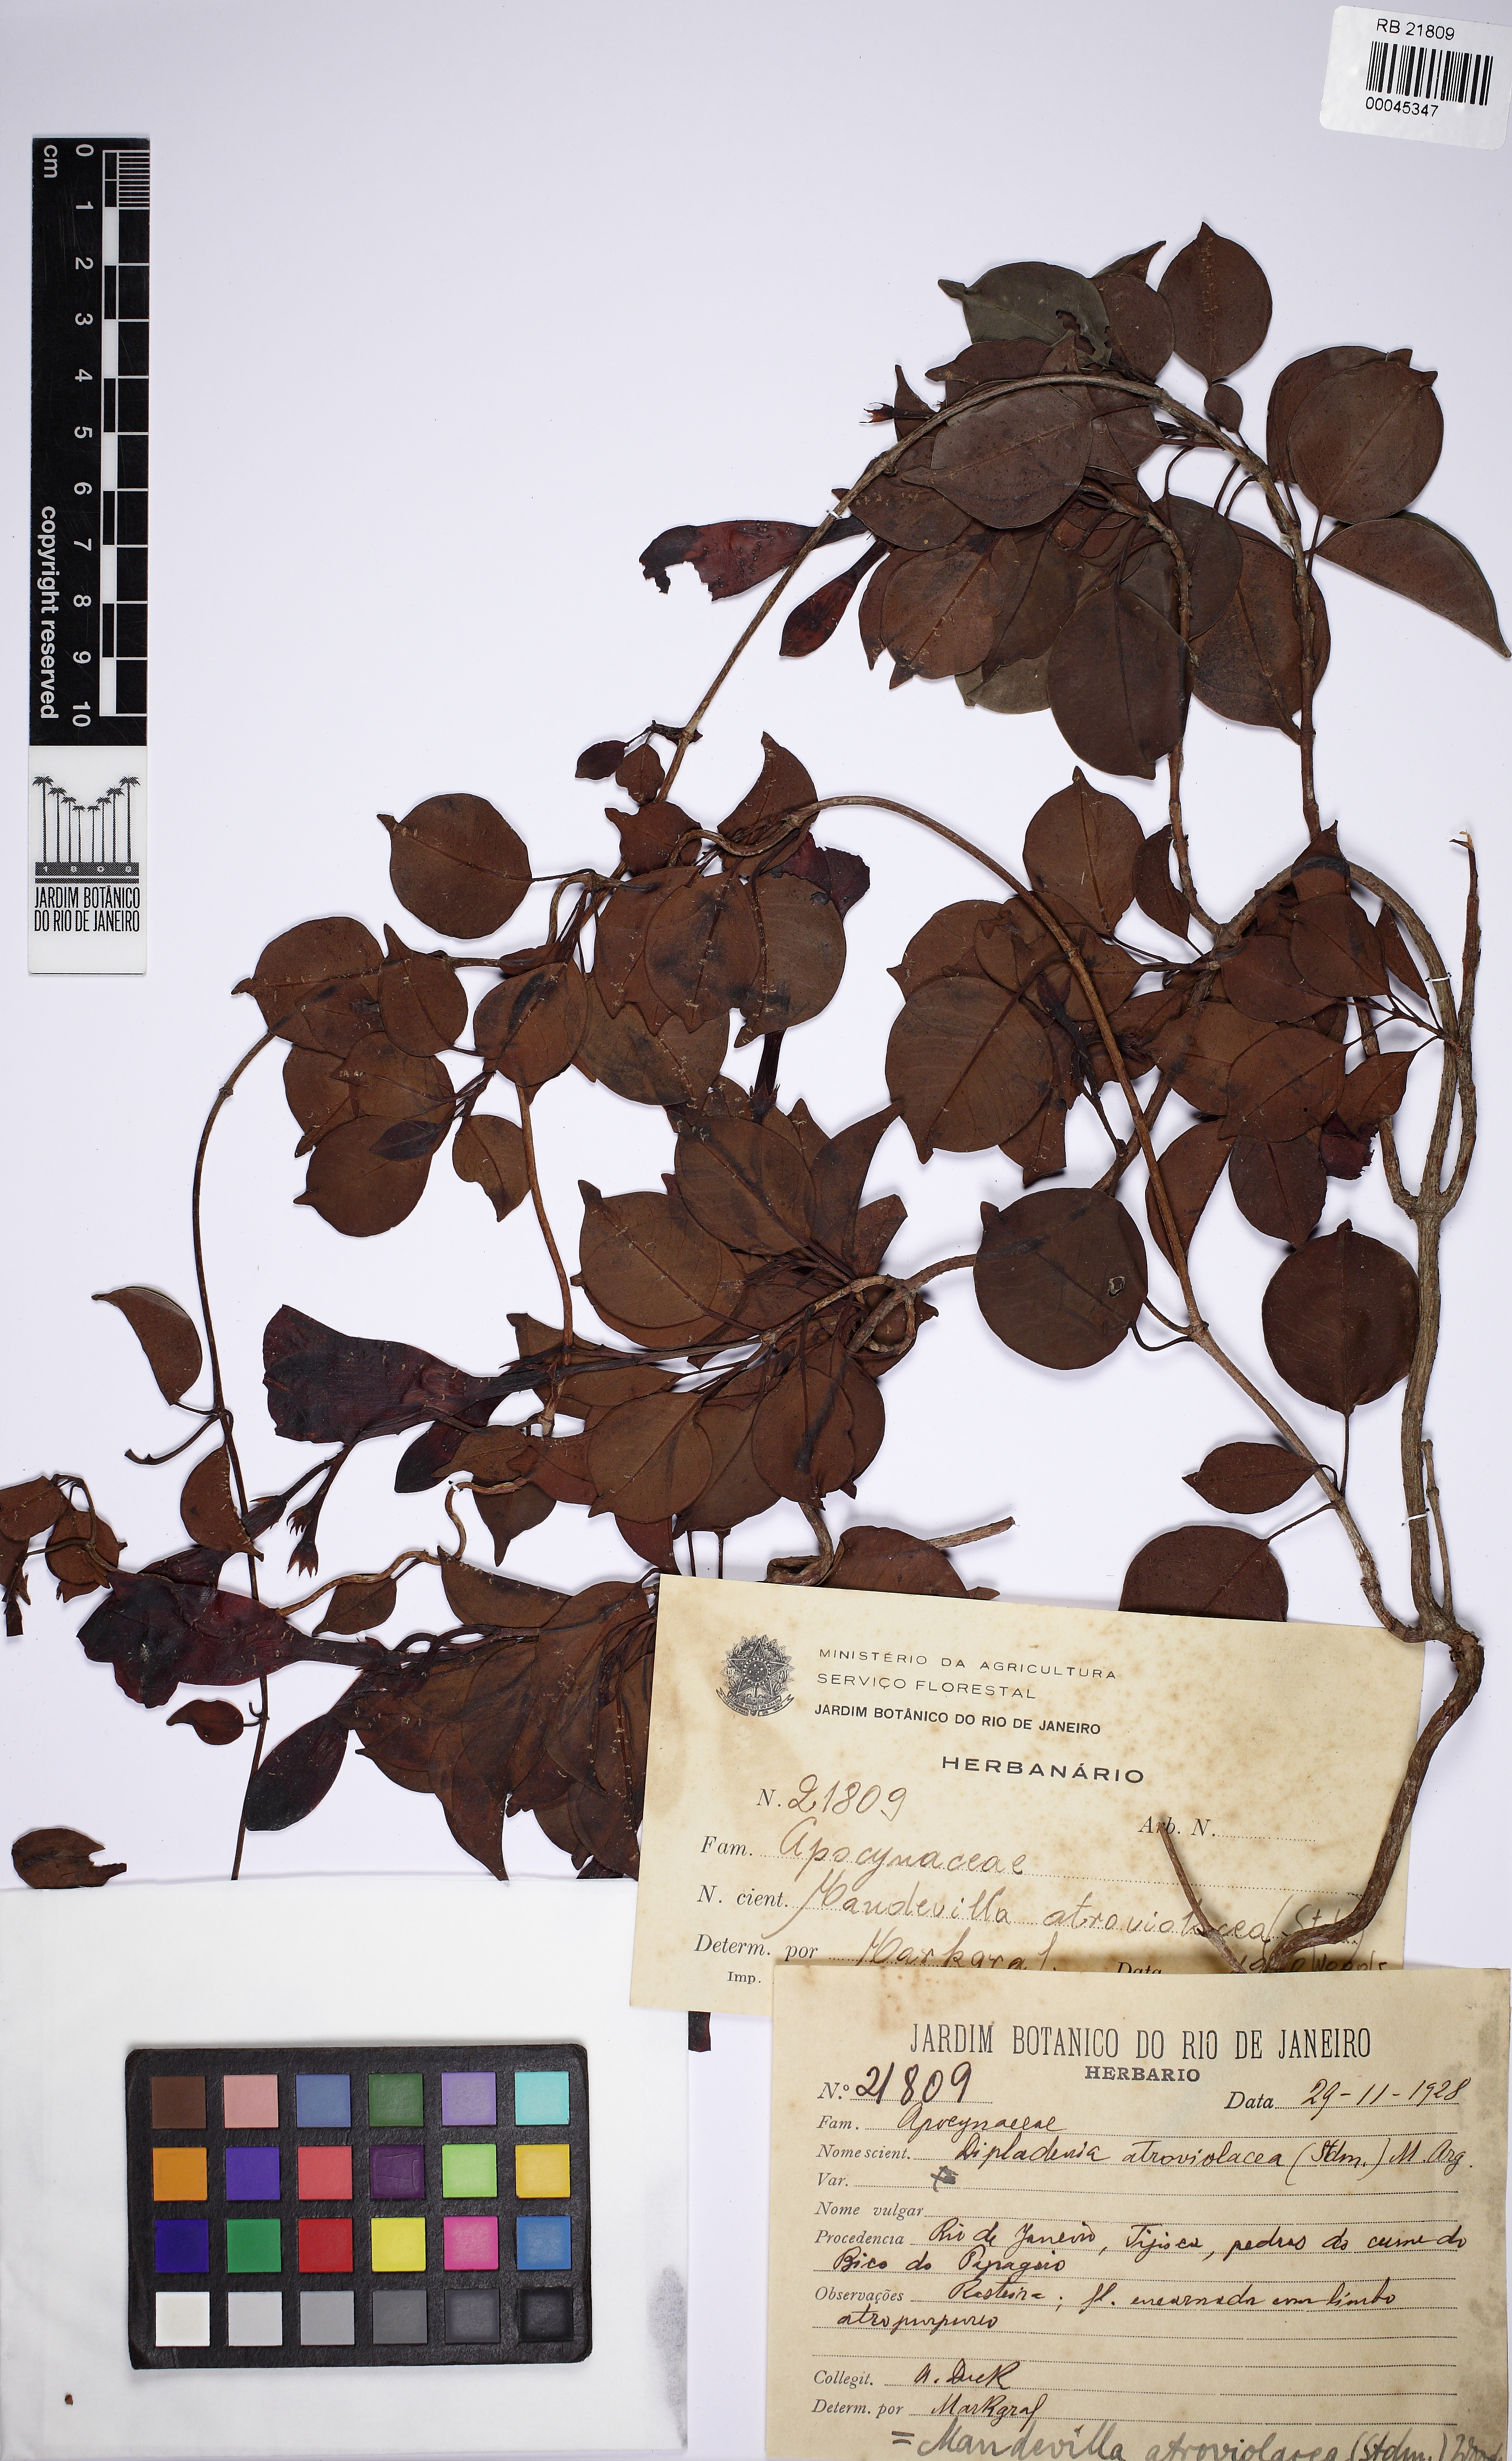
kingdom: Plantae
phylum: Tracheophyta
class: Magnoliopsida
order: Gentianales
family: Apocynaceae
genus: Mandevilla
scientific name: Mandevilla atroviolacea
